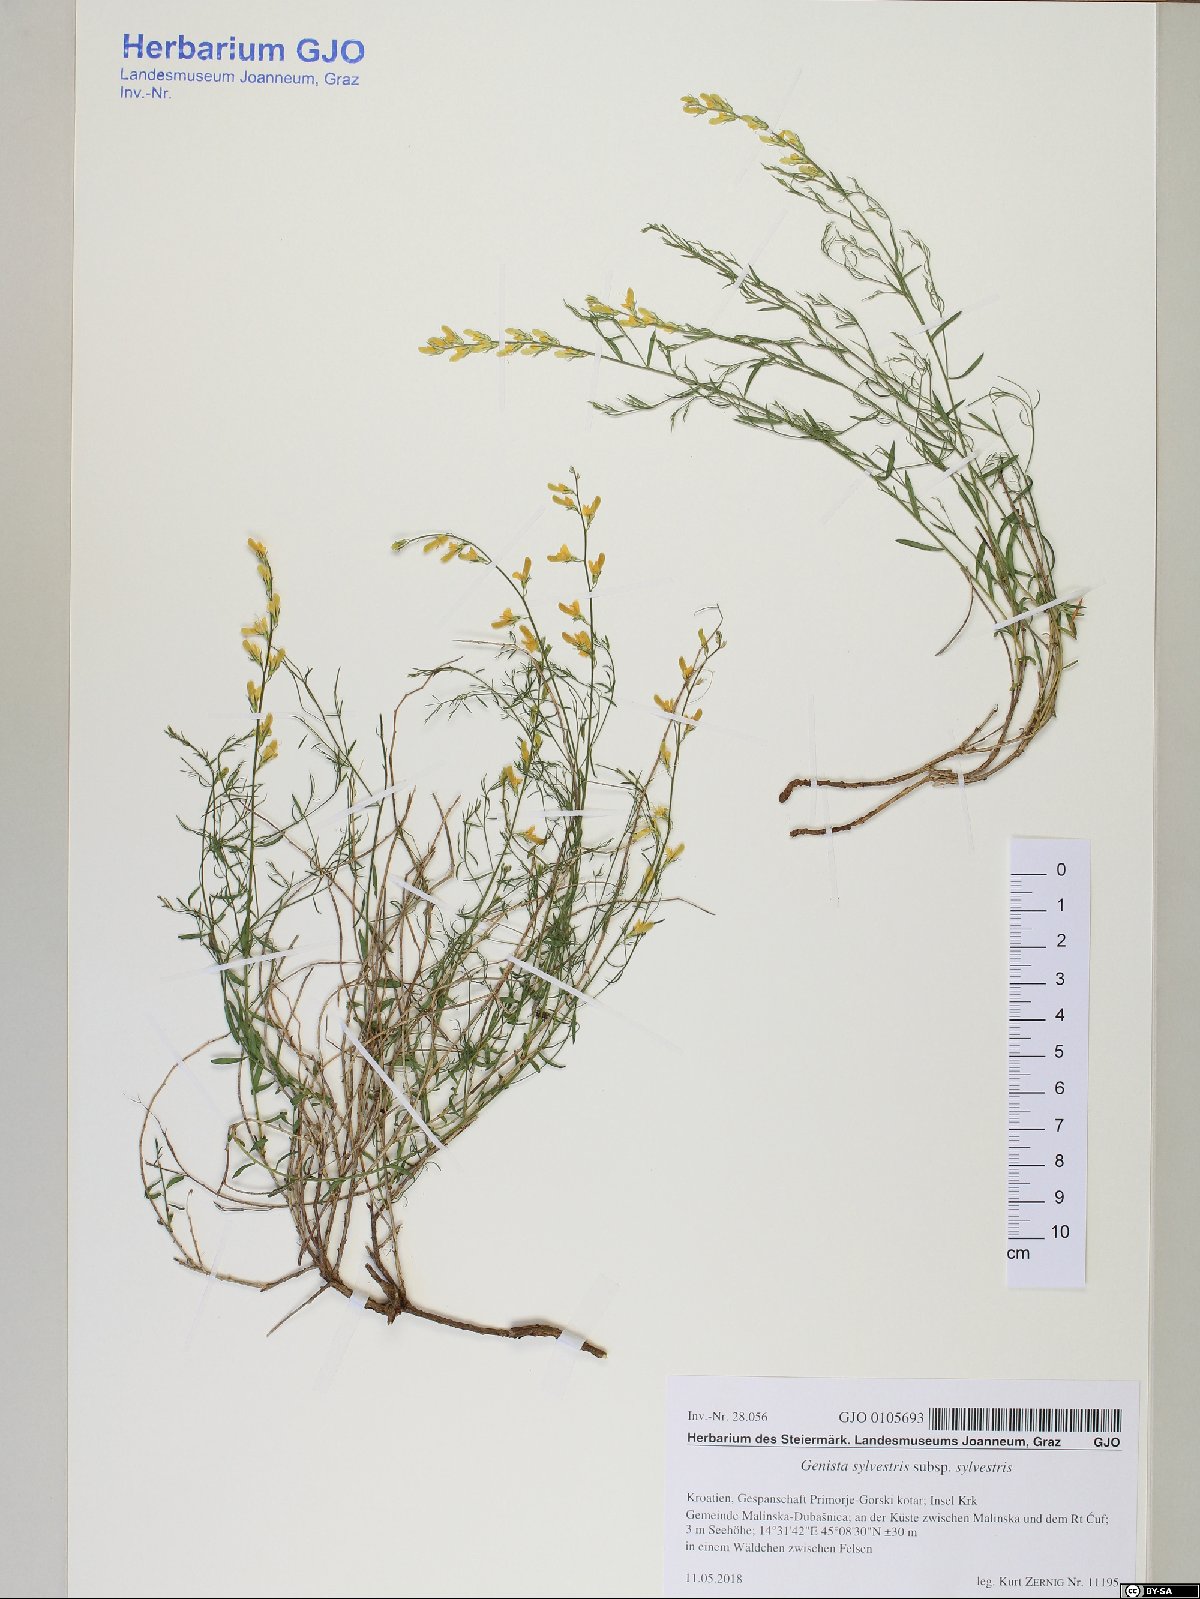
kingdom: Plantae
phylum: Tracheophyta
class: Magnoliopsida
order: Fabales
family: Fabaceae
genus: Genista
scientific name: Genista sylvestris
